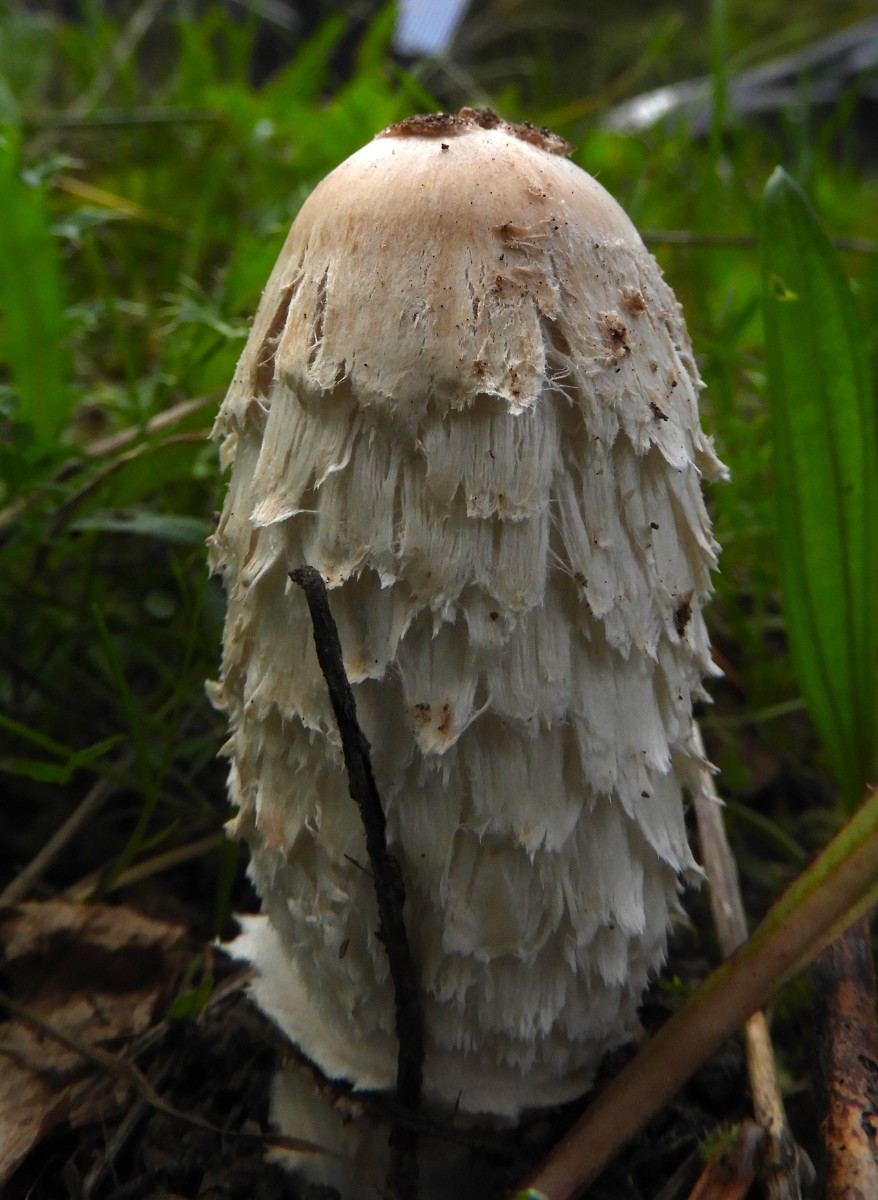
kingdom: Fungi
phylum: Basidiomycota
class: Agaricomycetes
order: Agaricales
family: Agaricaceae
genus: Coprinus
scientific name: Coprinus comatus
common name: stor parykhat
